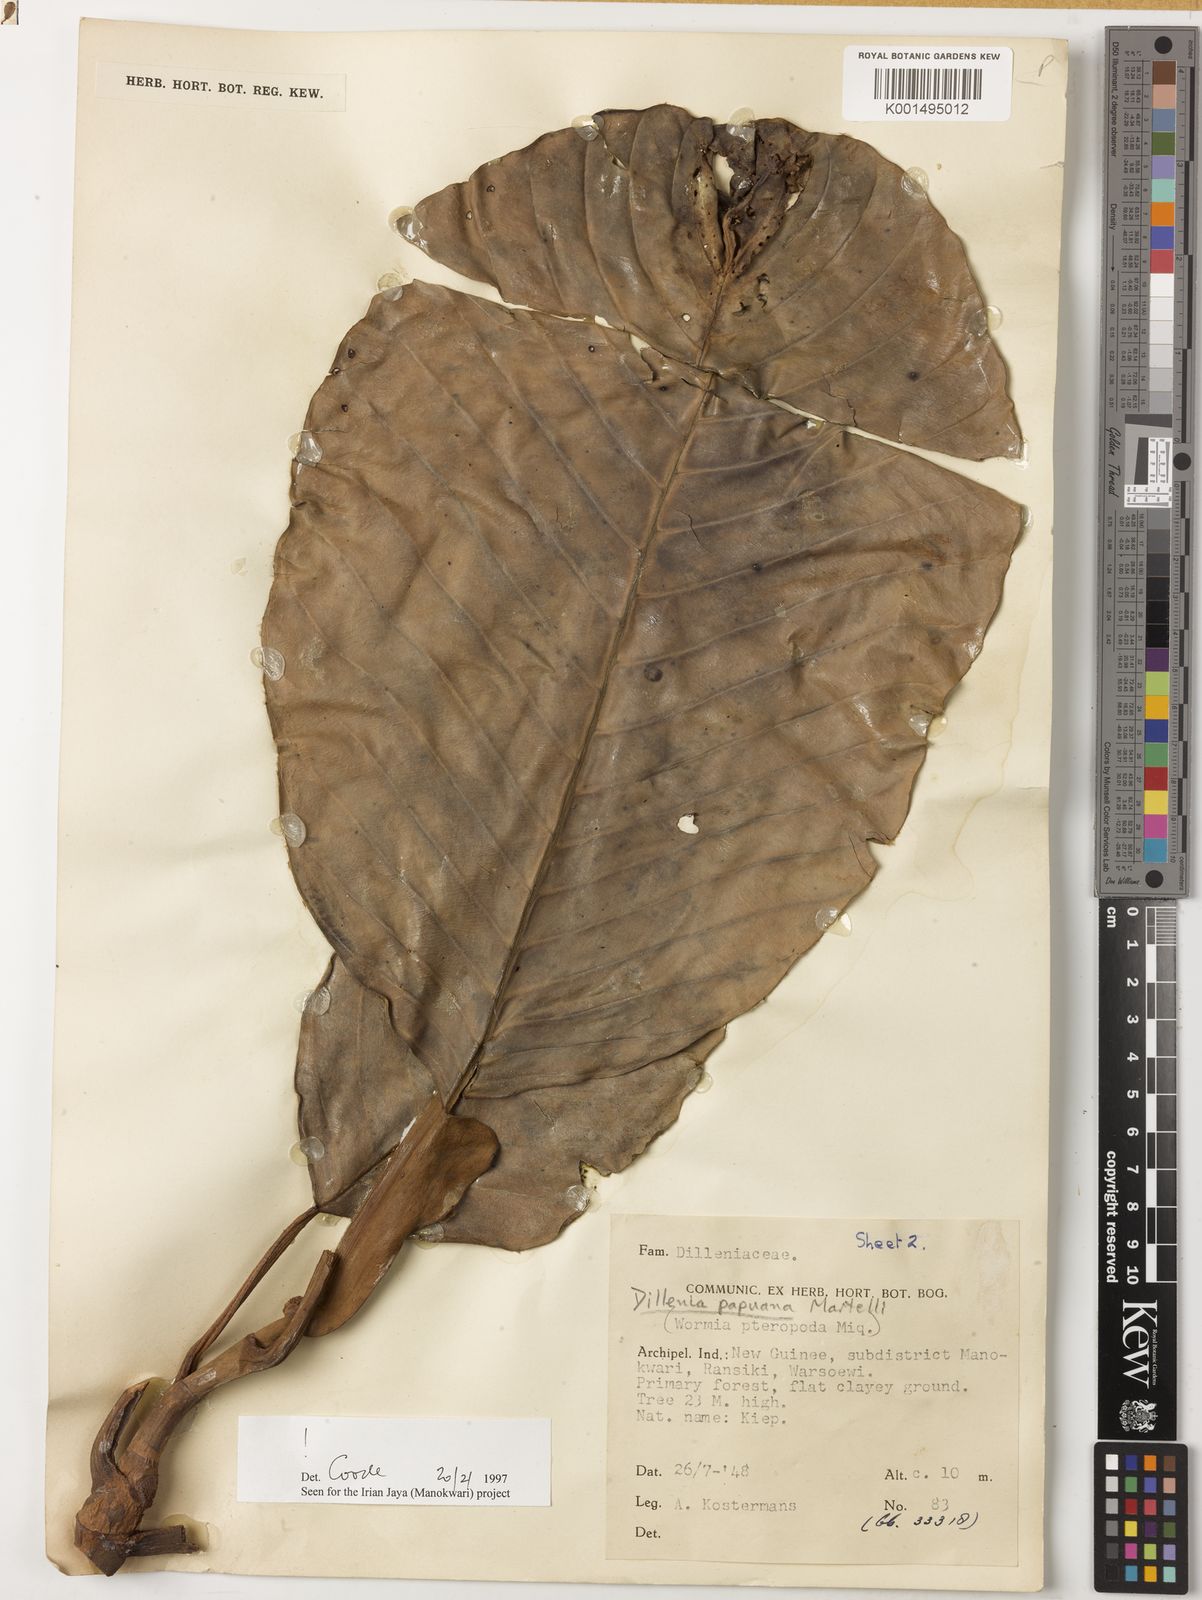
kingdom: Plantae
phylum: Tracheophyta
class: Magnoliopsida
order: Dilleniales
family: Dilleniaceae
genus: Dillenia
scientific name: Dillenia papuana
